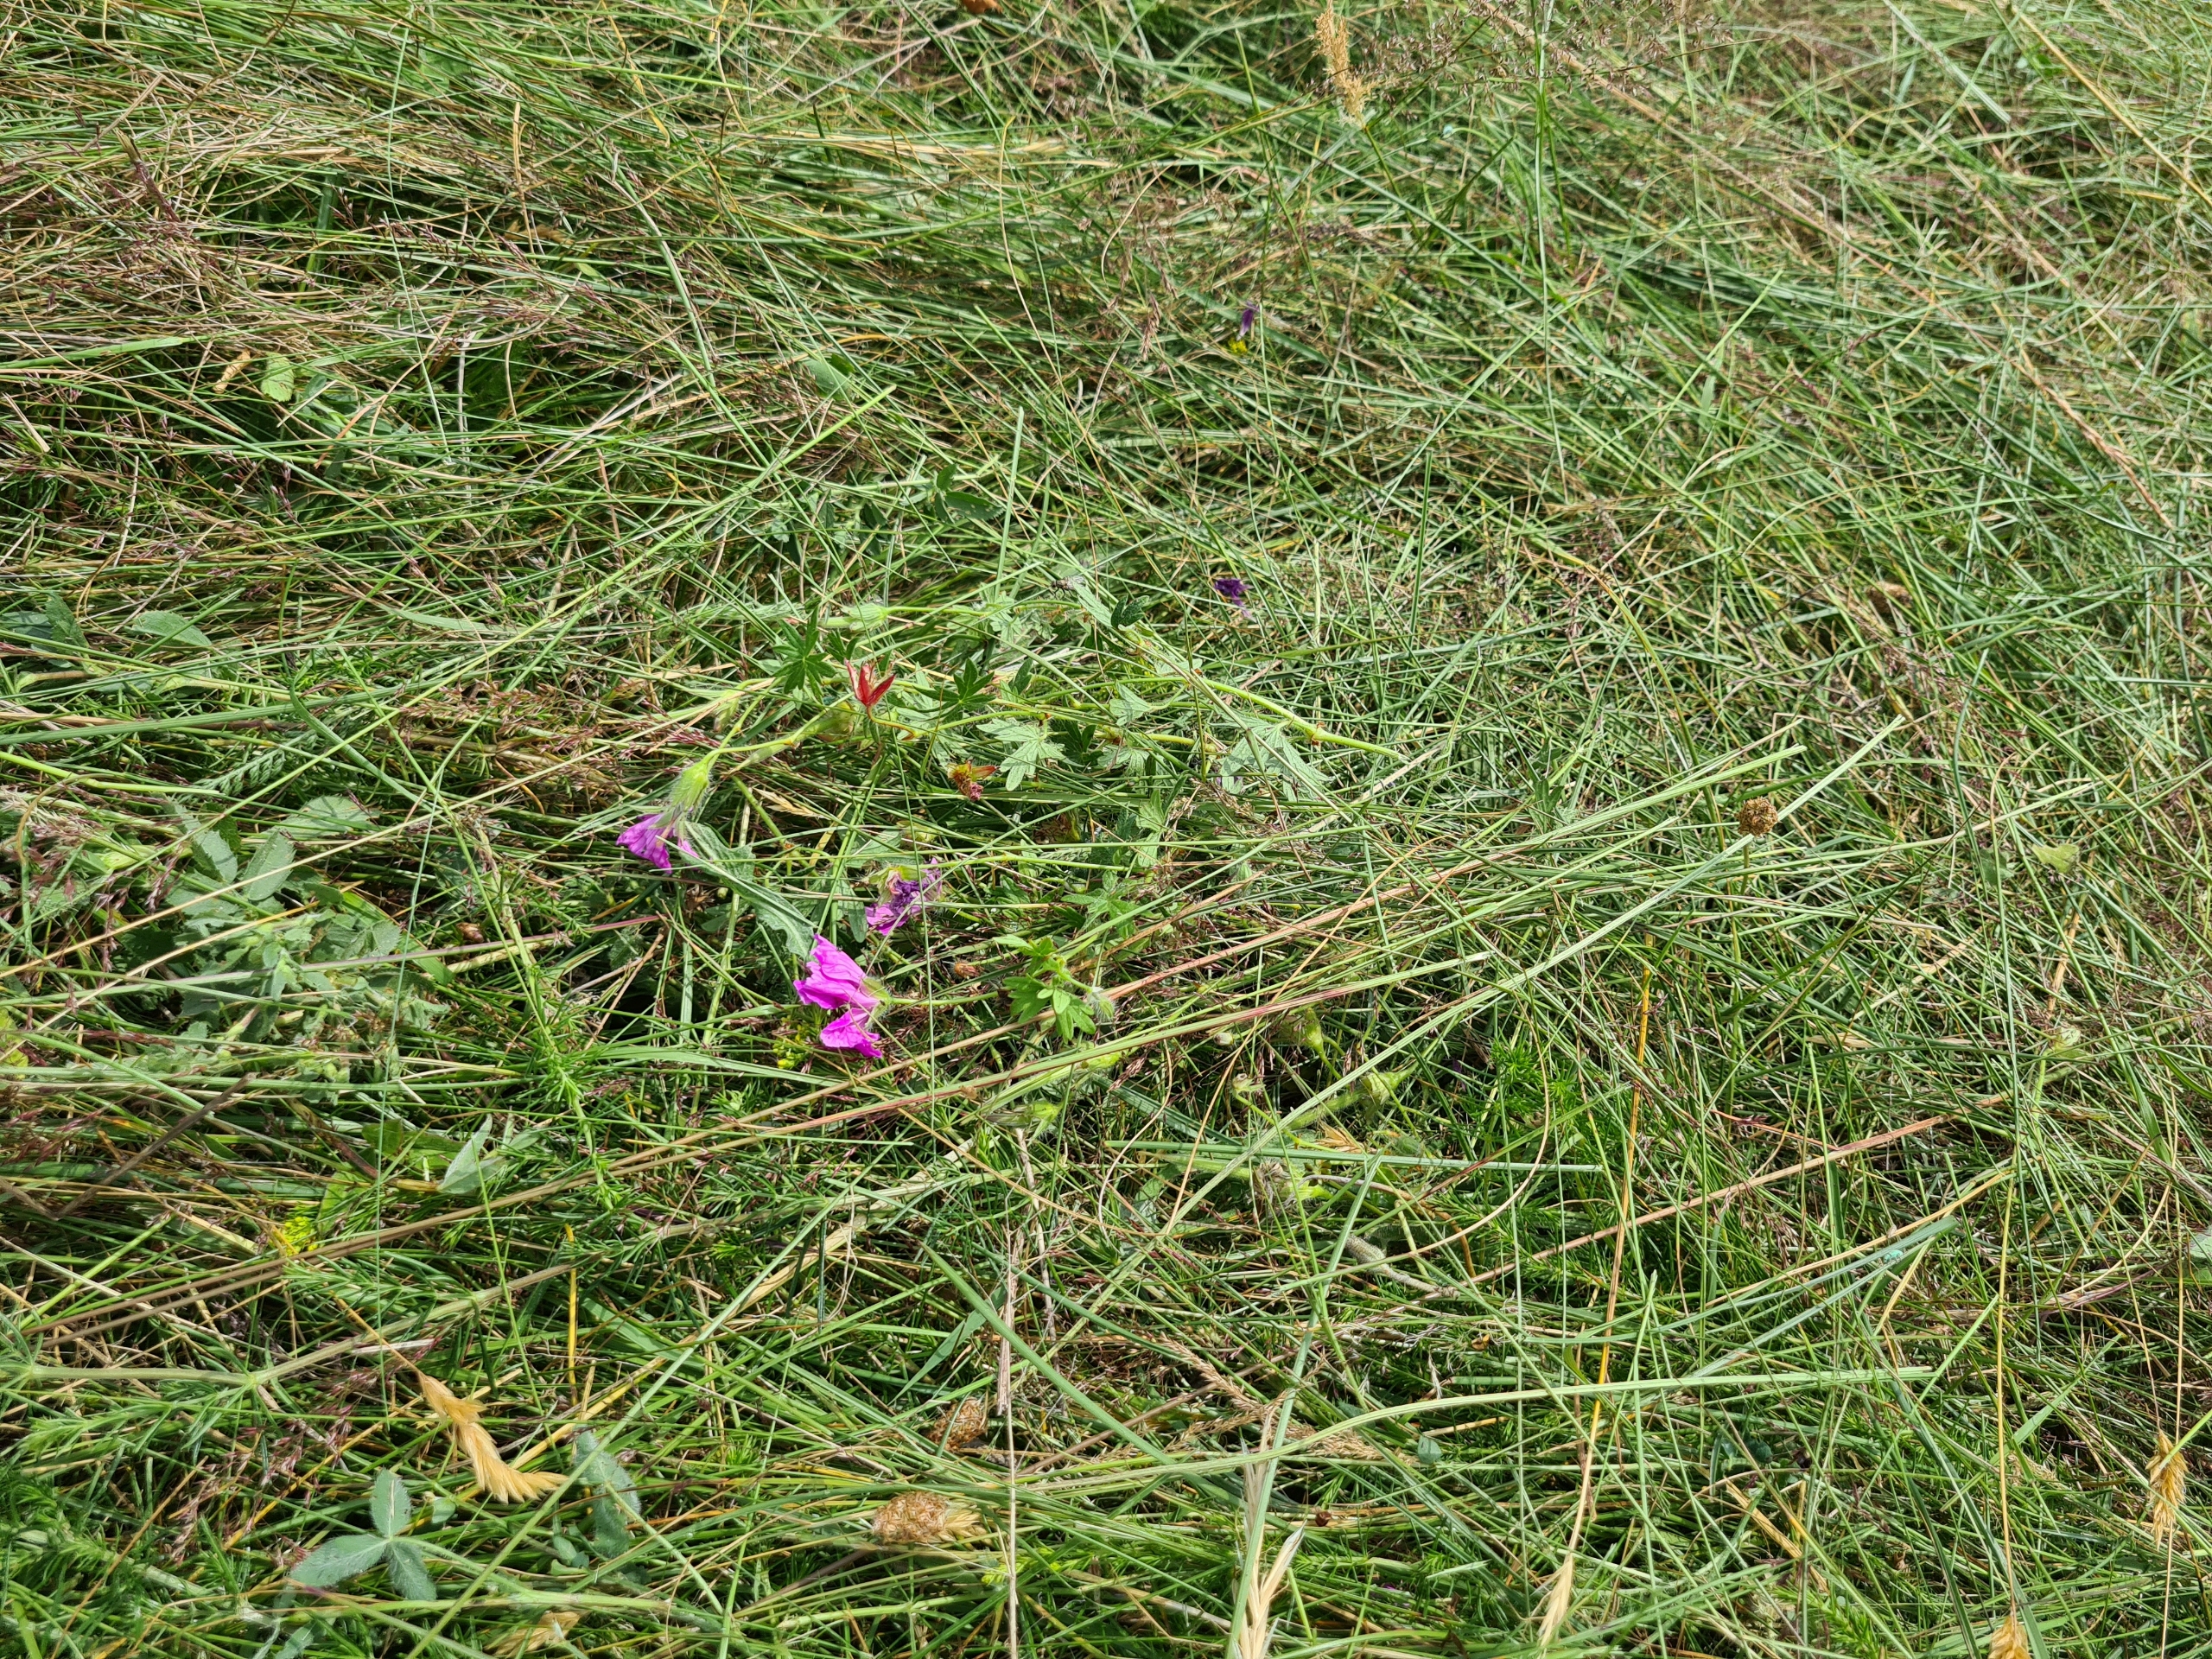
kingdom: Plantae
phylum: Tracheophyta
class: Magnoliopsida
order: Geraniales
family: Geraniaceae
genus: Geranium
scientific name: Geranium sanguineum
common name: Blodrød storkenæb
